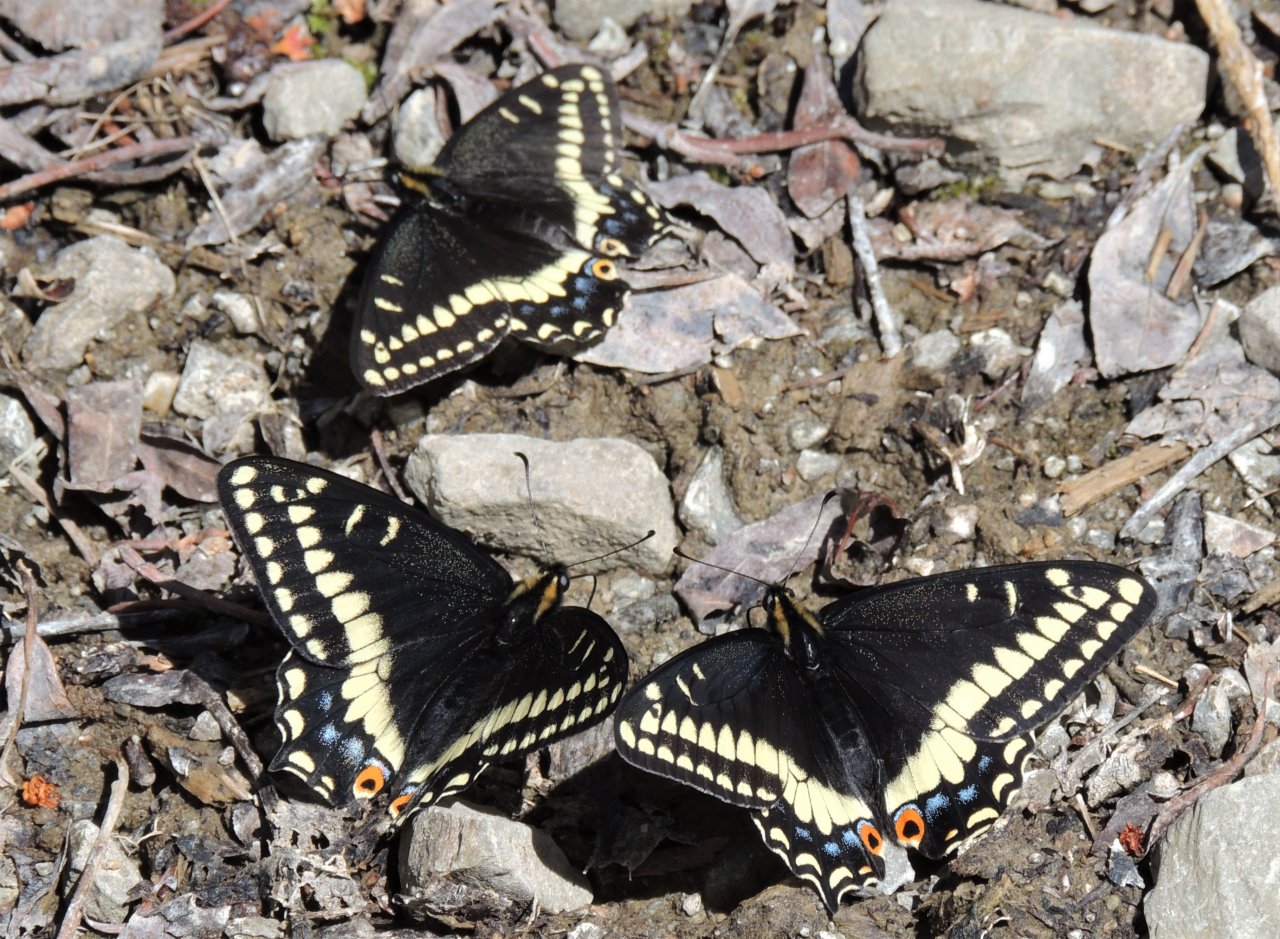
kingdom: Animalia
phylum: Arthropoda
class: Insecta
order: Lepidoptera
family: Papilionidae
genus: Papilio
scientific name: Papilio indra
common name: Indra Swallowtail
